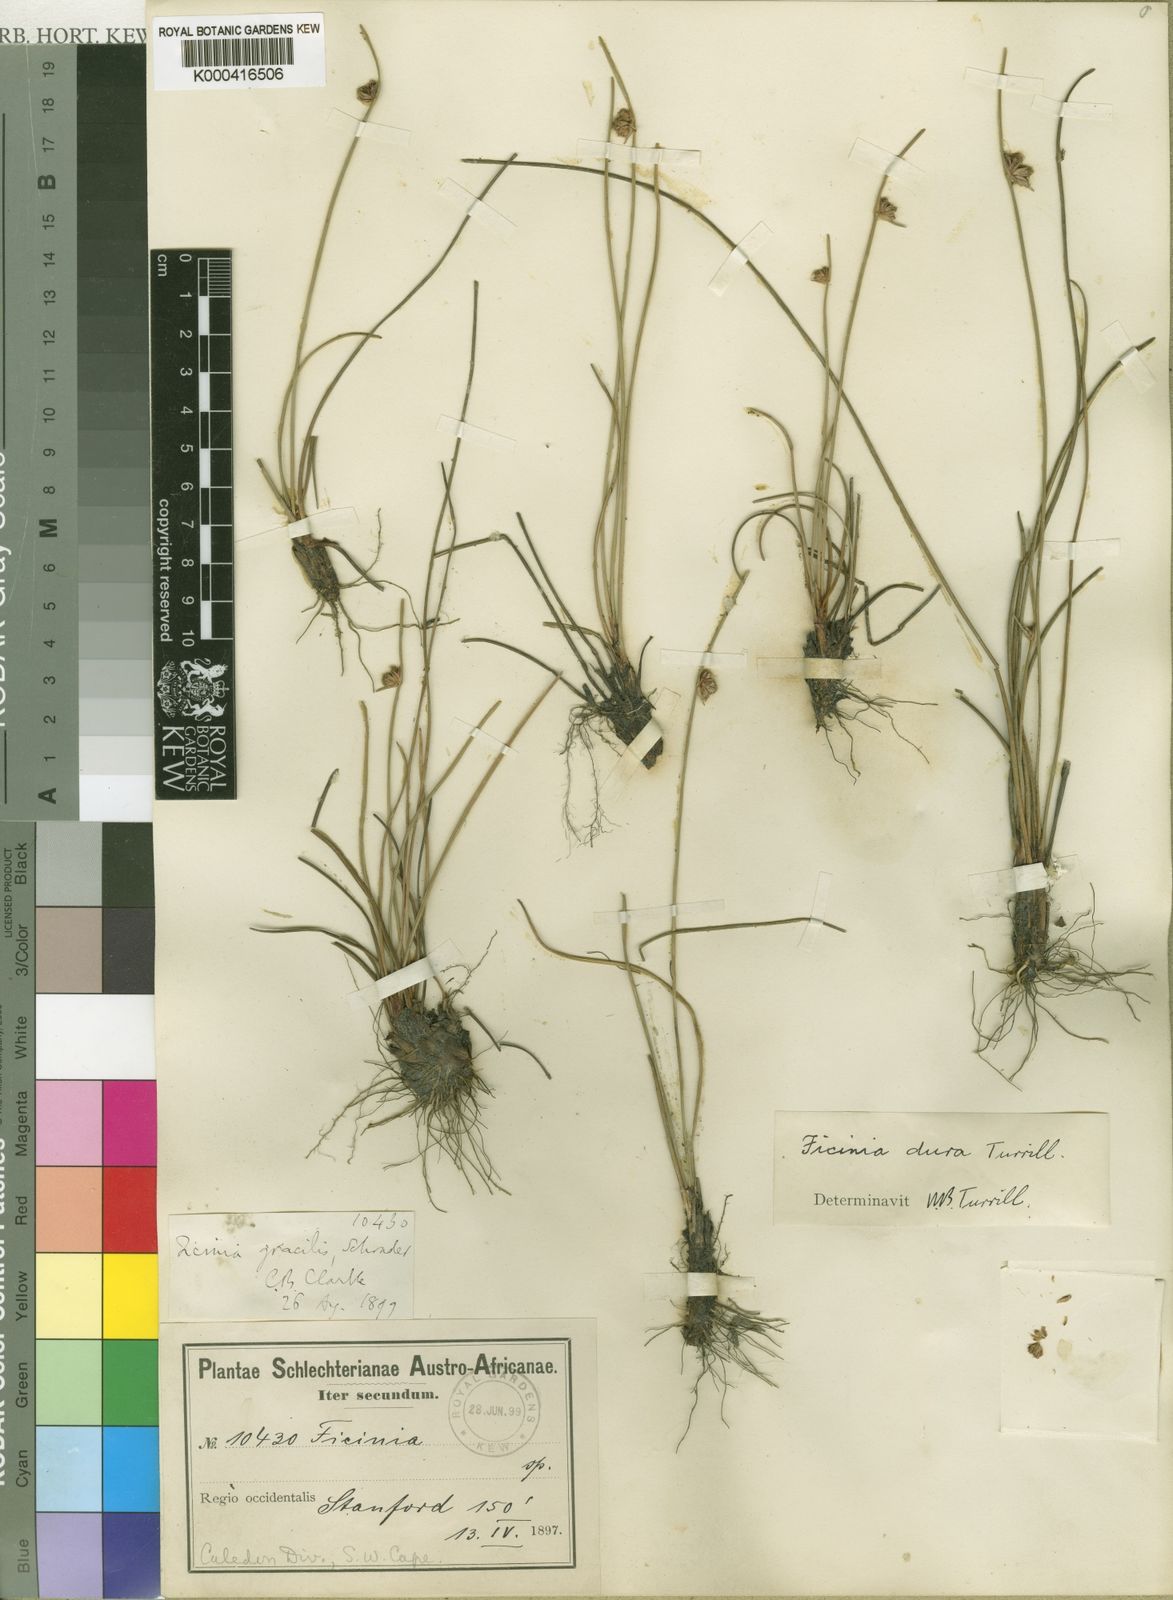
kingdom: Plantae
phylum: Tracheophyta
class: Liliopsida
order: Poales
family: Cyperaceae
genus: Ficinia
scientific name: Ficinia dura
